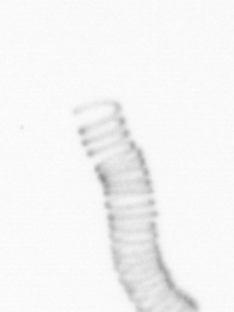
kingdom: Chromista
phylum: Ochrophyta
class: Bacillariophyceae
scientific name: Bacillariophyceae
